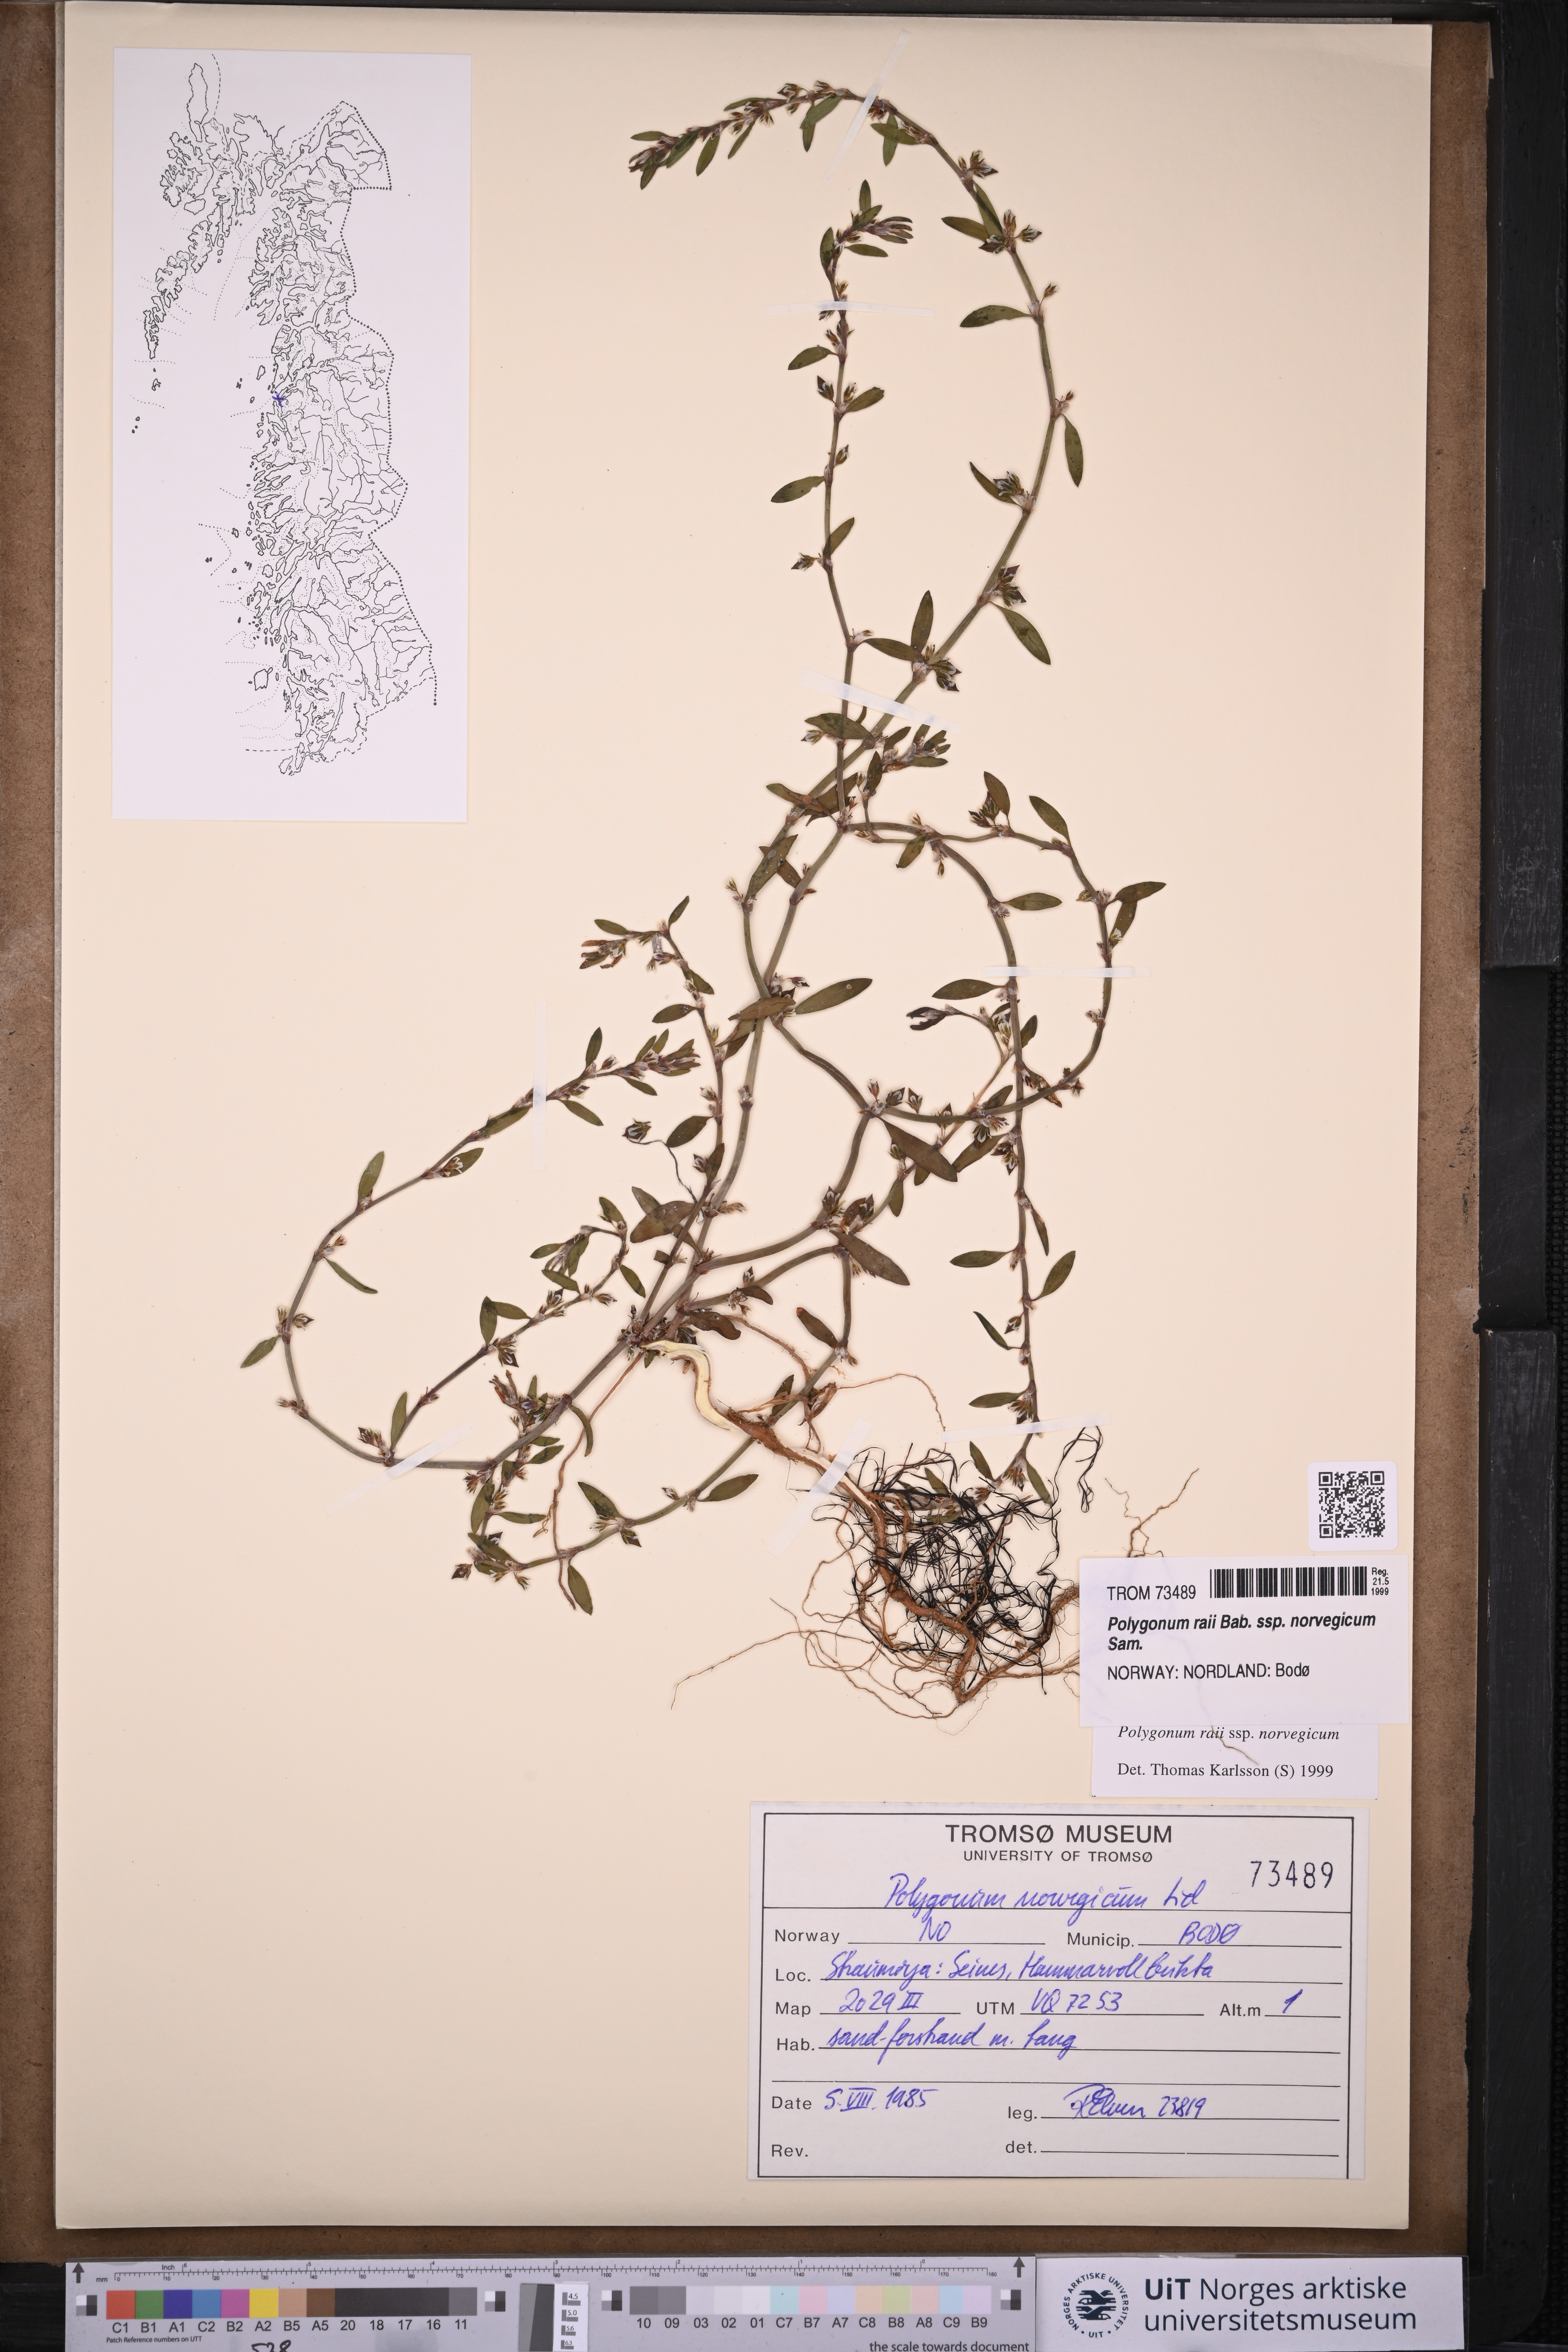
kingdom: Plantae
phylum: Tracheophyta
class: Magnoliopsida
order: Caryophyllales
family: Polygonaceae
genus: Polygonum
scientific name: Polygonum norvegicum
